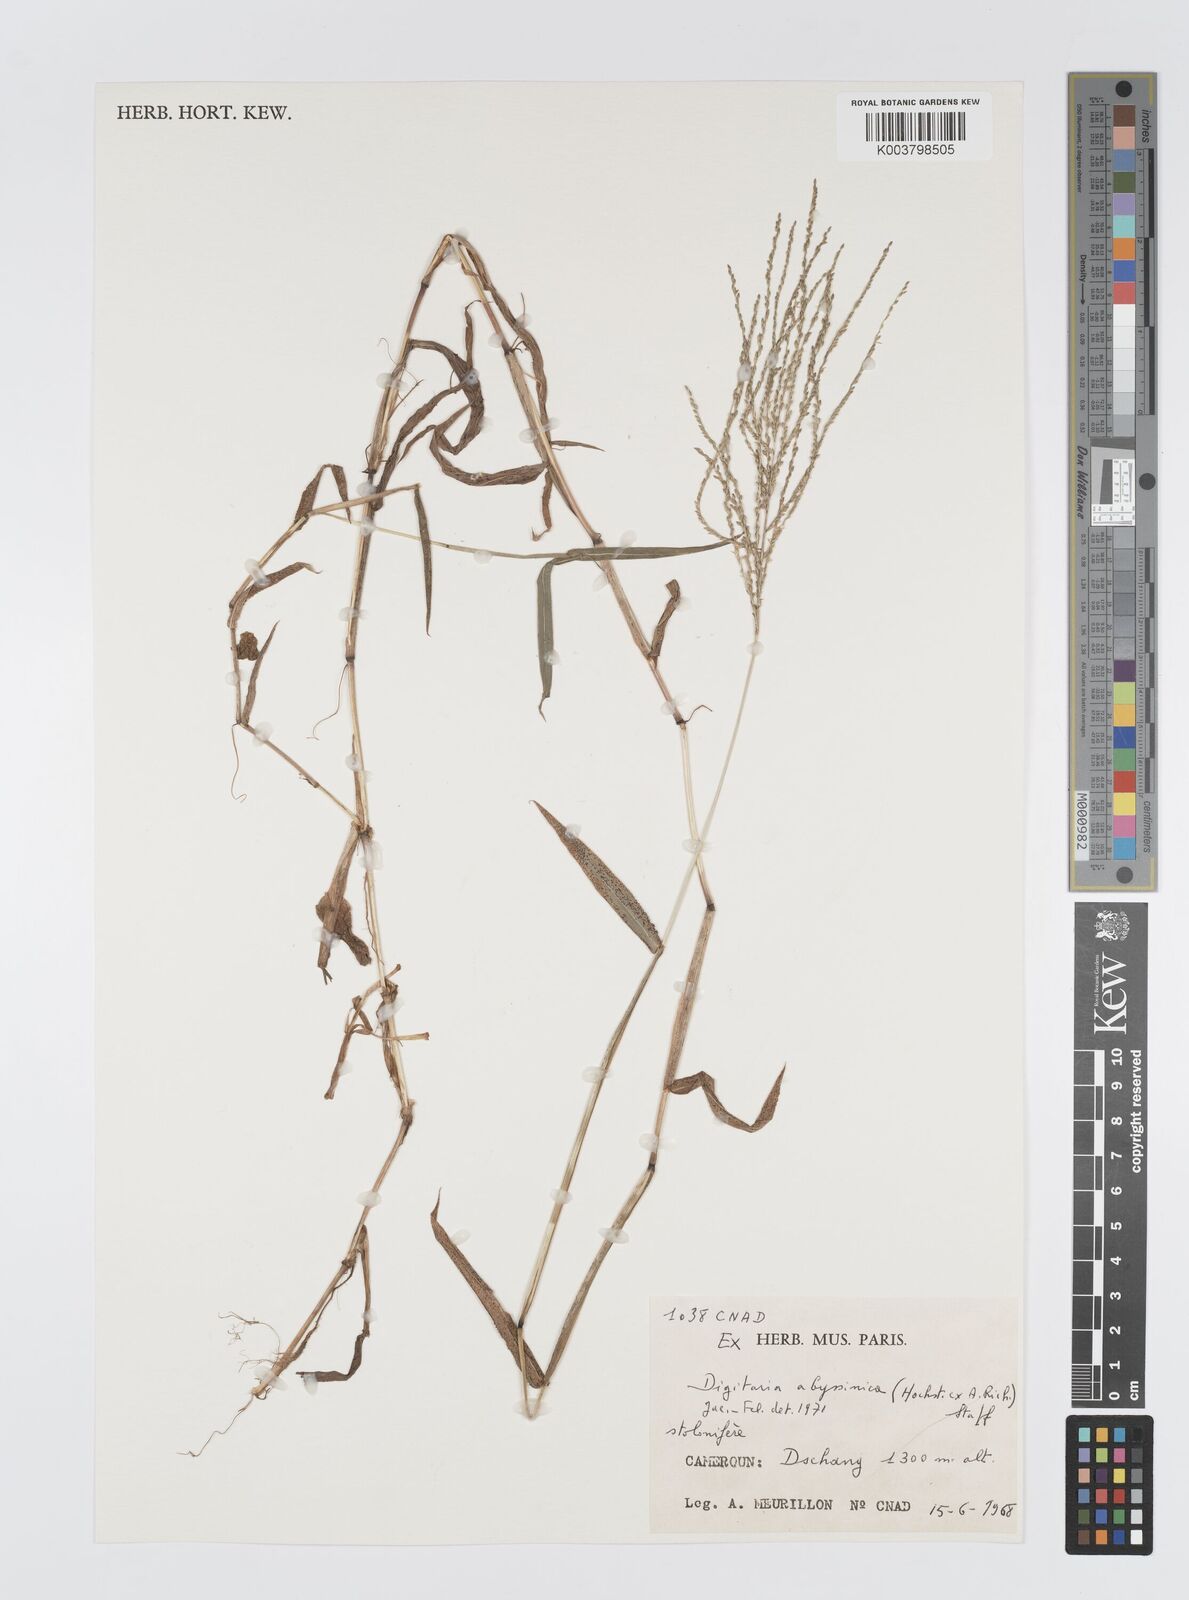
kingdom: Plantae
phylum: Tracheophyta
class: Liliopsida
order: Poales
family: Poaceae
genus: Digitaria
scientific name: Digitaria abyssinica
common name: African couchgrass
